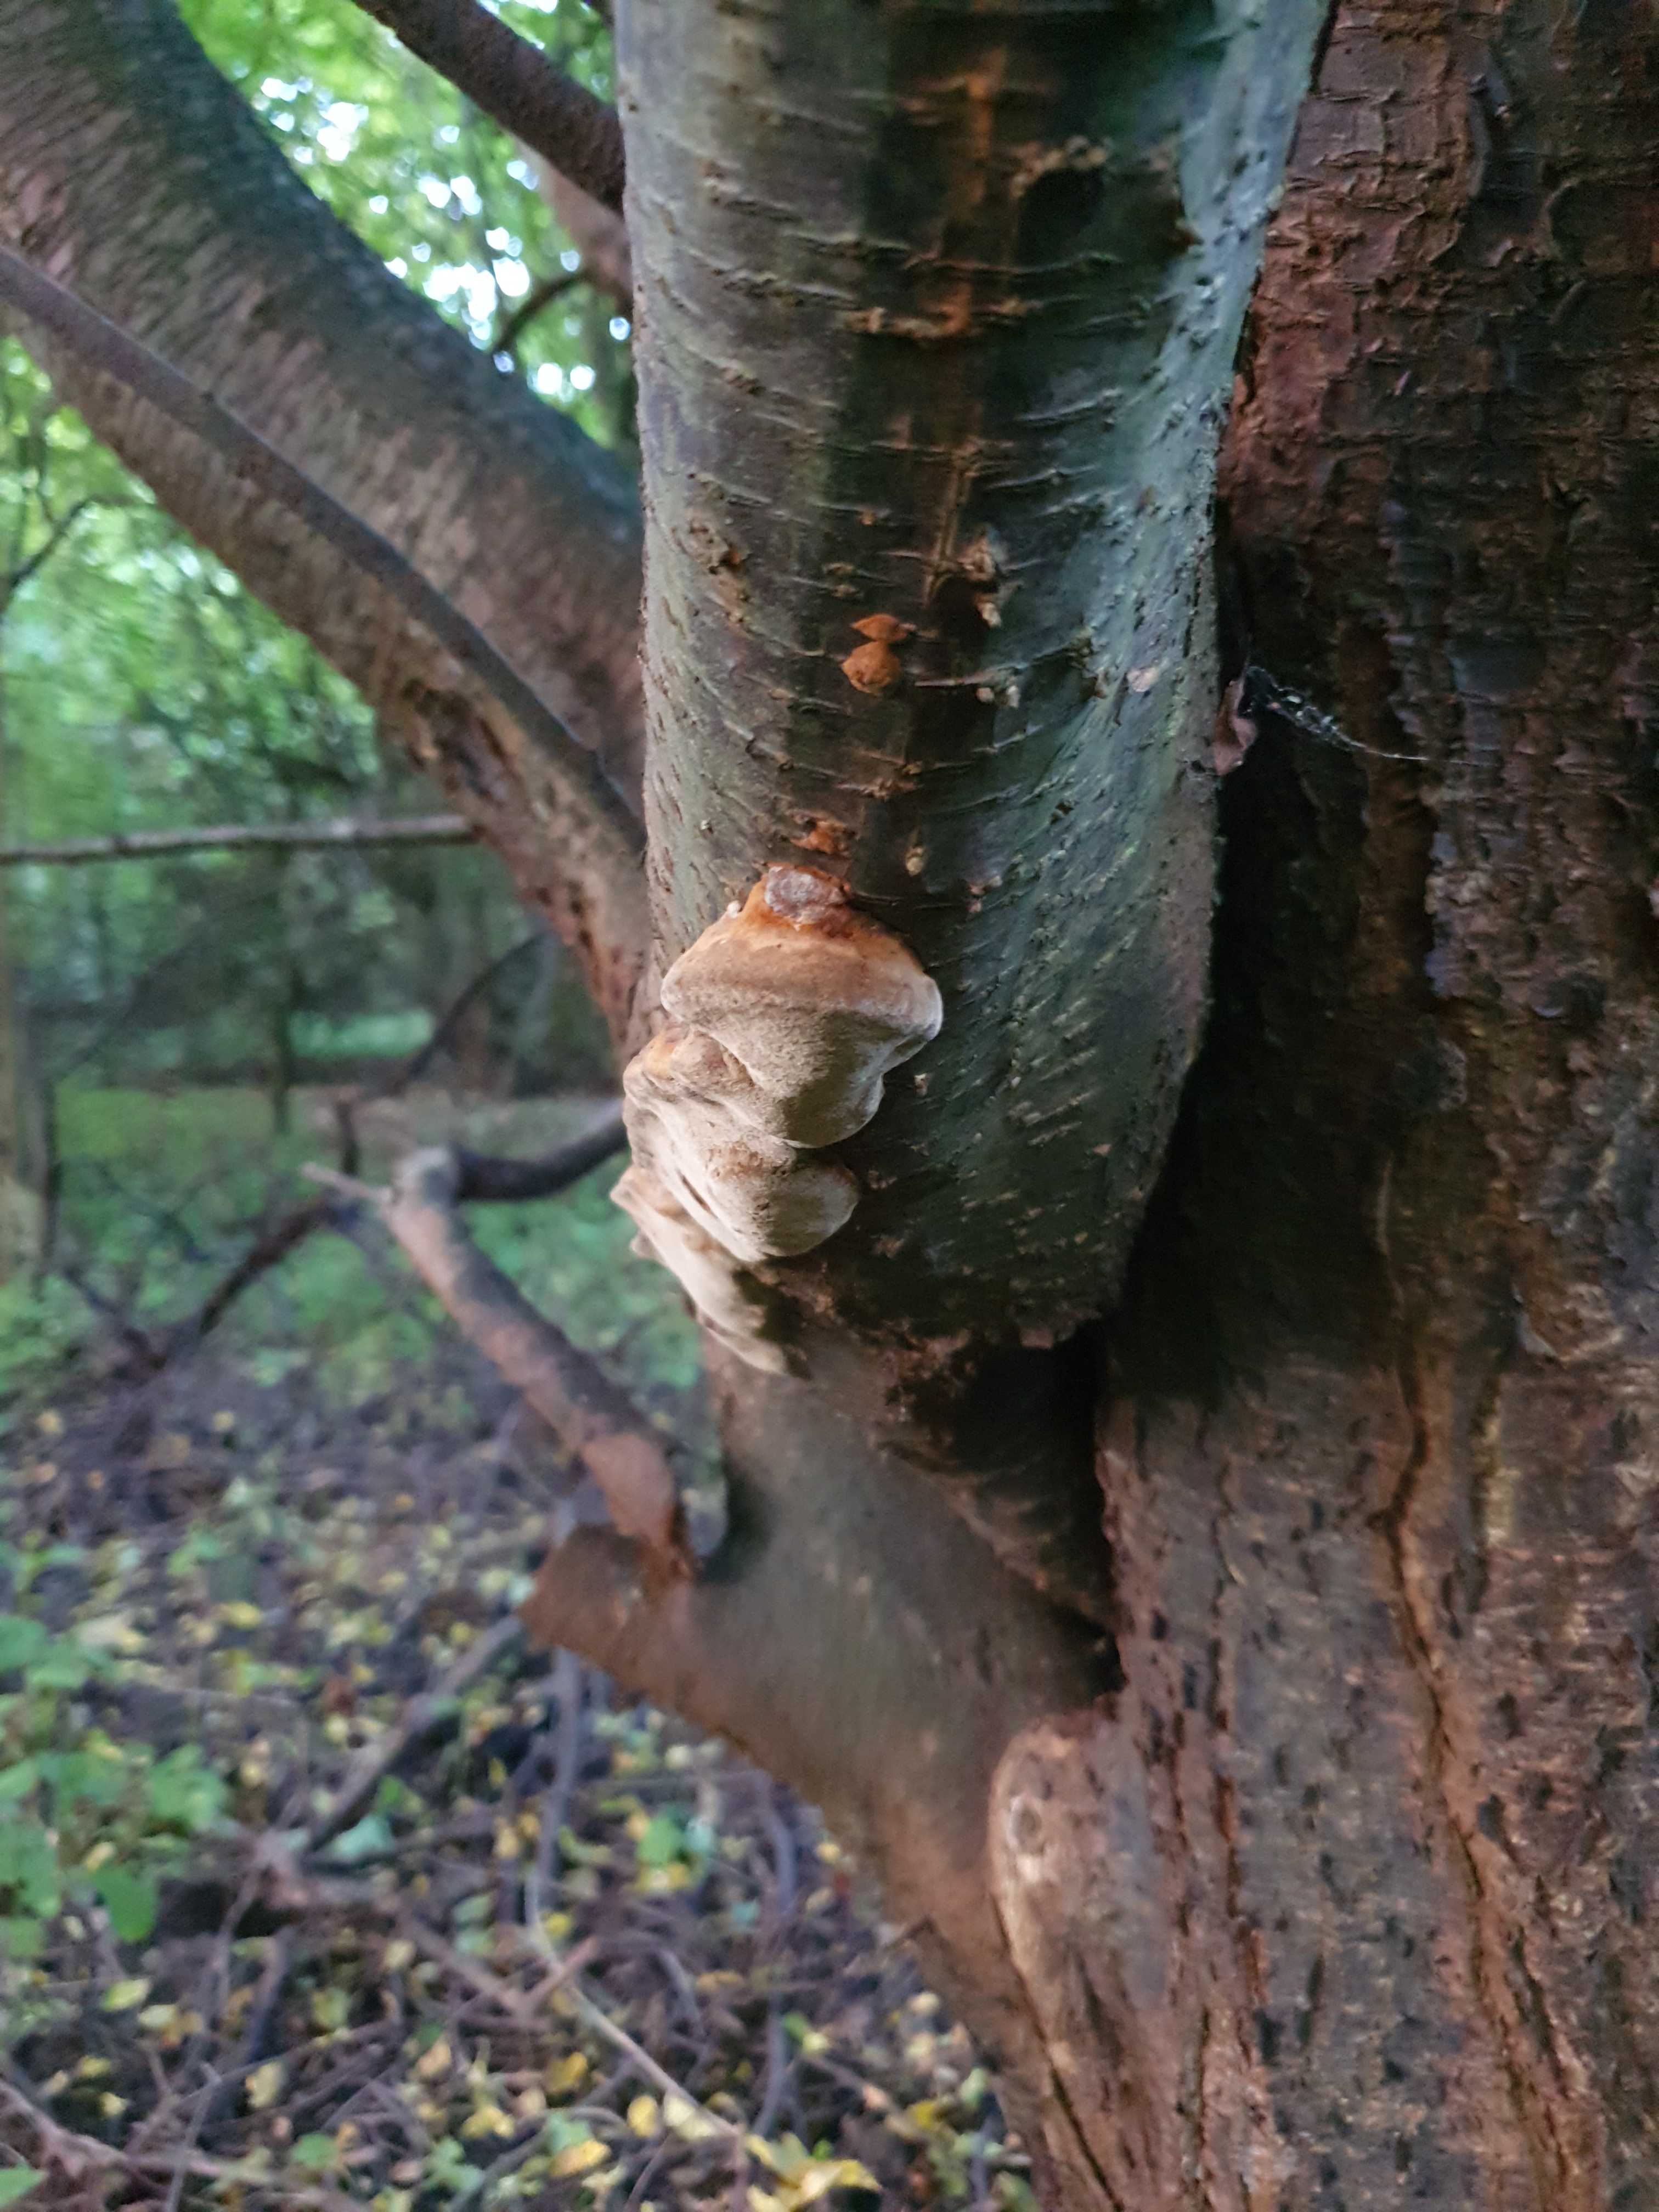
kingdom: Fungi
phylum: Basidiomycota
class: Agaricomycetes
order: Hymenochaetales
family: Hymenochaetaceae
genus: Phellinus
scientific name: Phellinus pomaceus
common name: blomme-ildporesvamp
